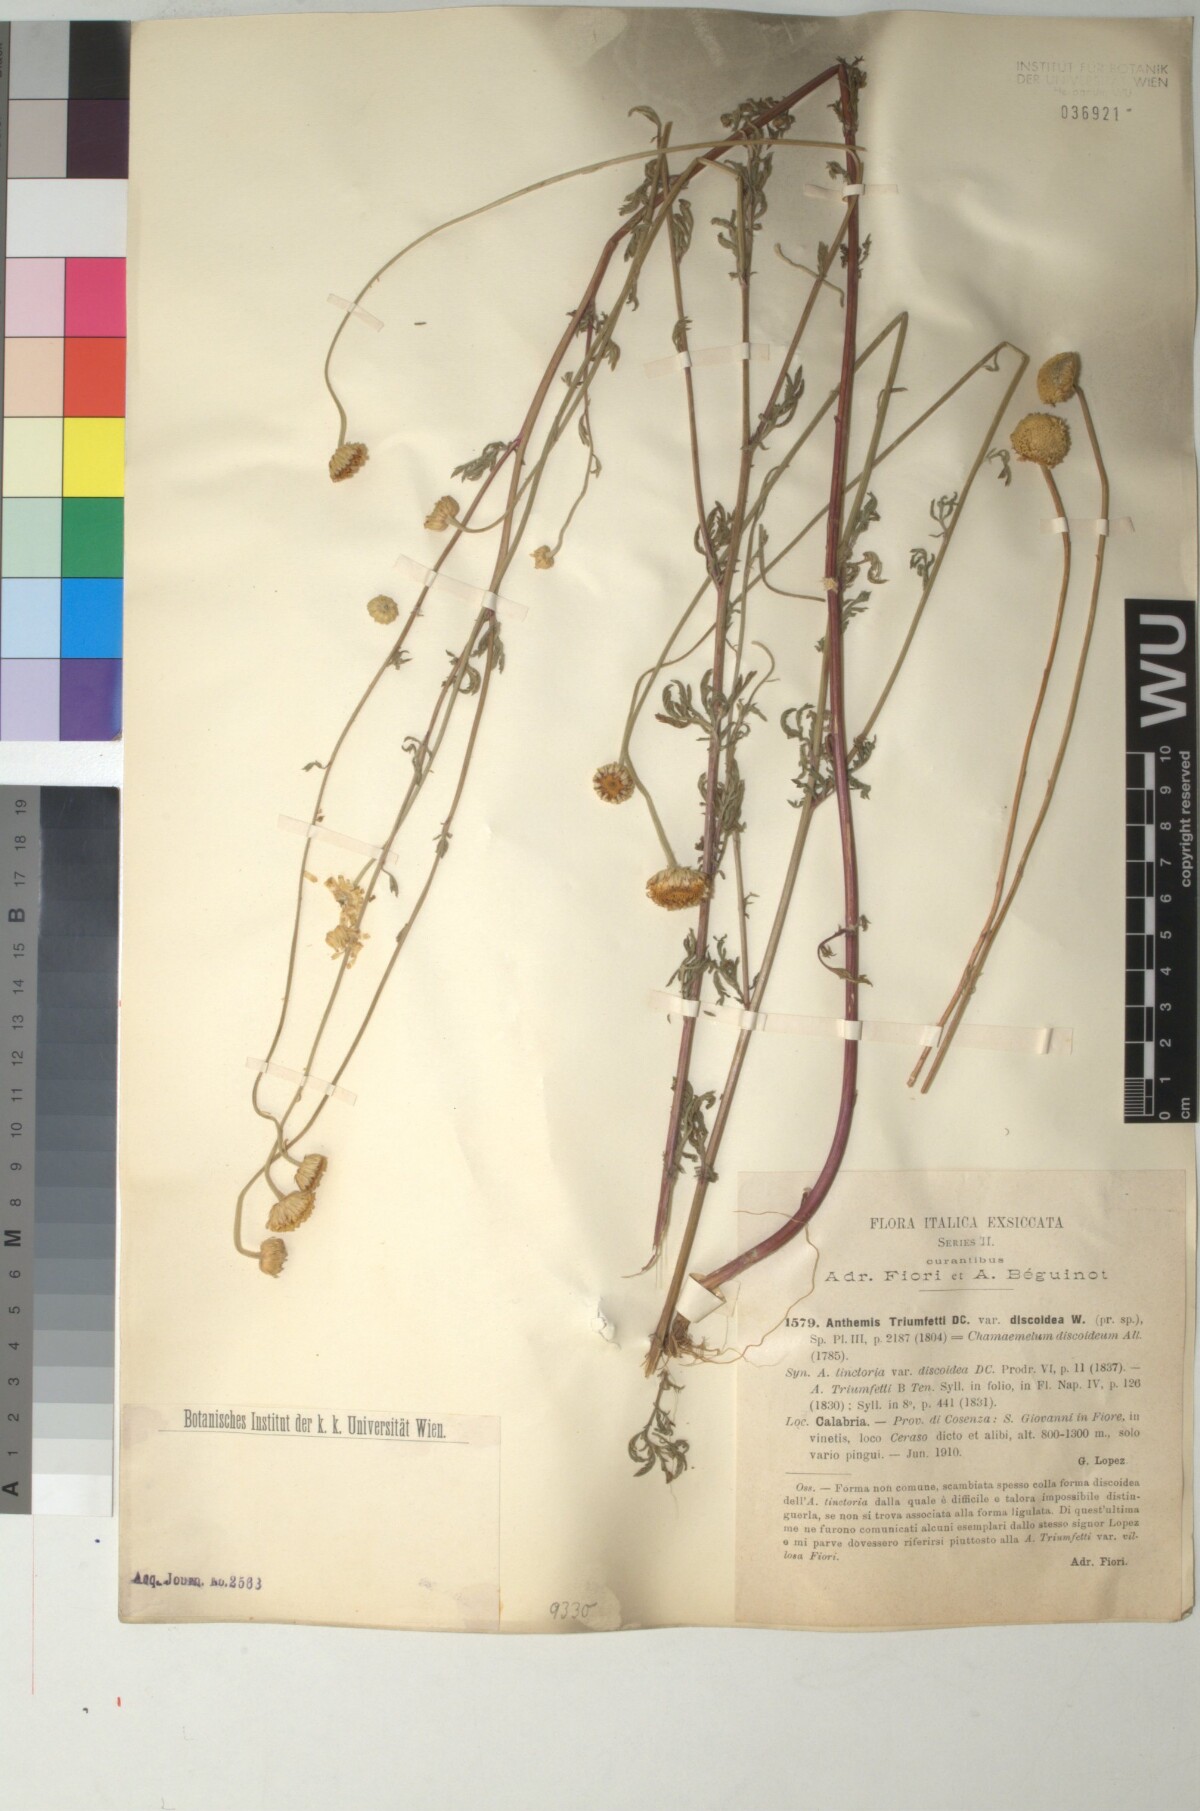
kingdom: Plantae
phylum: Tracheophyta
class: Magnoliopsida
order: Asterales
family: Asteraceae
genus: Cota
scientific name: Cota triumfetti
